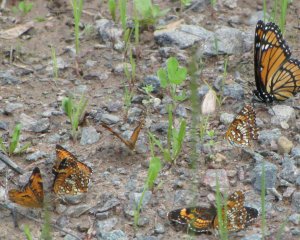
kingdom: Animalia
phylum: Arthropoda
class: Insecta
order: Lepidoptera
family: Nymphalidae
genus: Phyciodes
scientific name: Phyciodes tharos
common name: Northern Crescent
